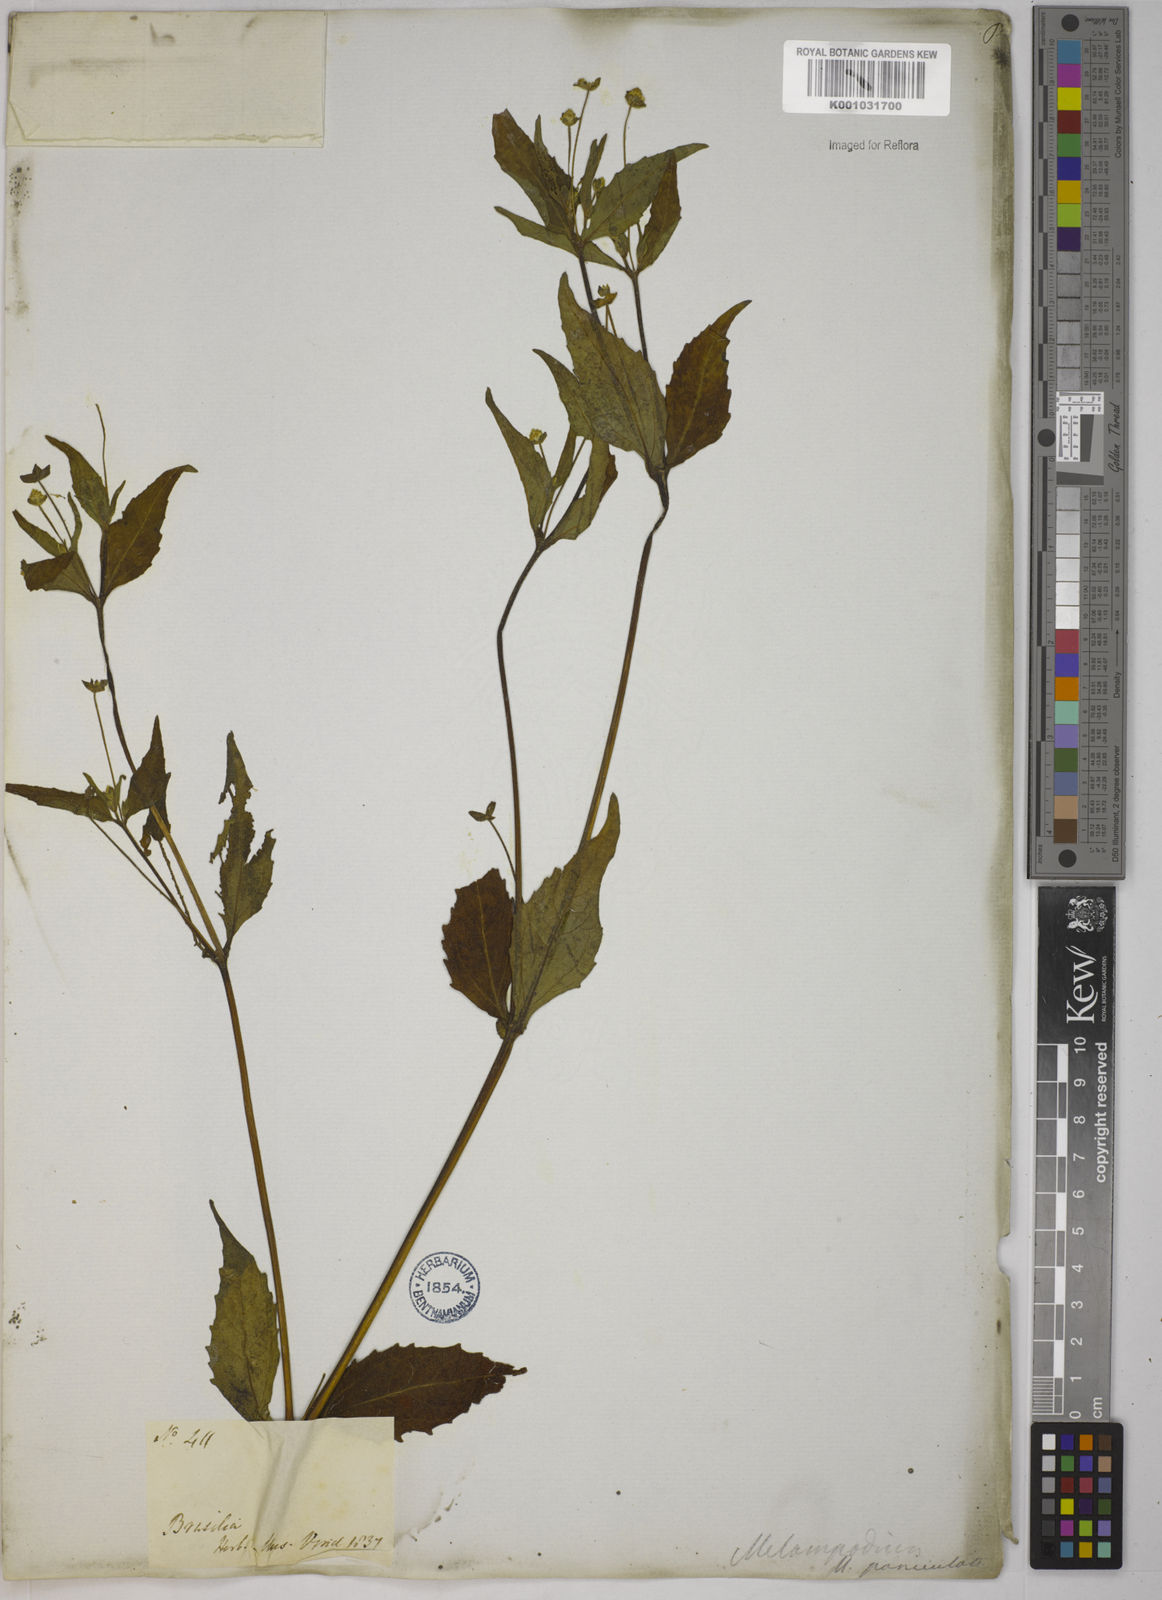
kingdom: Plantae
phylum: Tracheophyta
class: Magnoliopsida
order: Asterales
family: Asteraceae
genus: Melampodium
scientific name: Melampodium paniculatum
